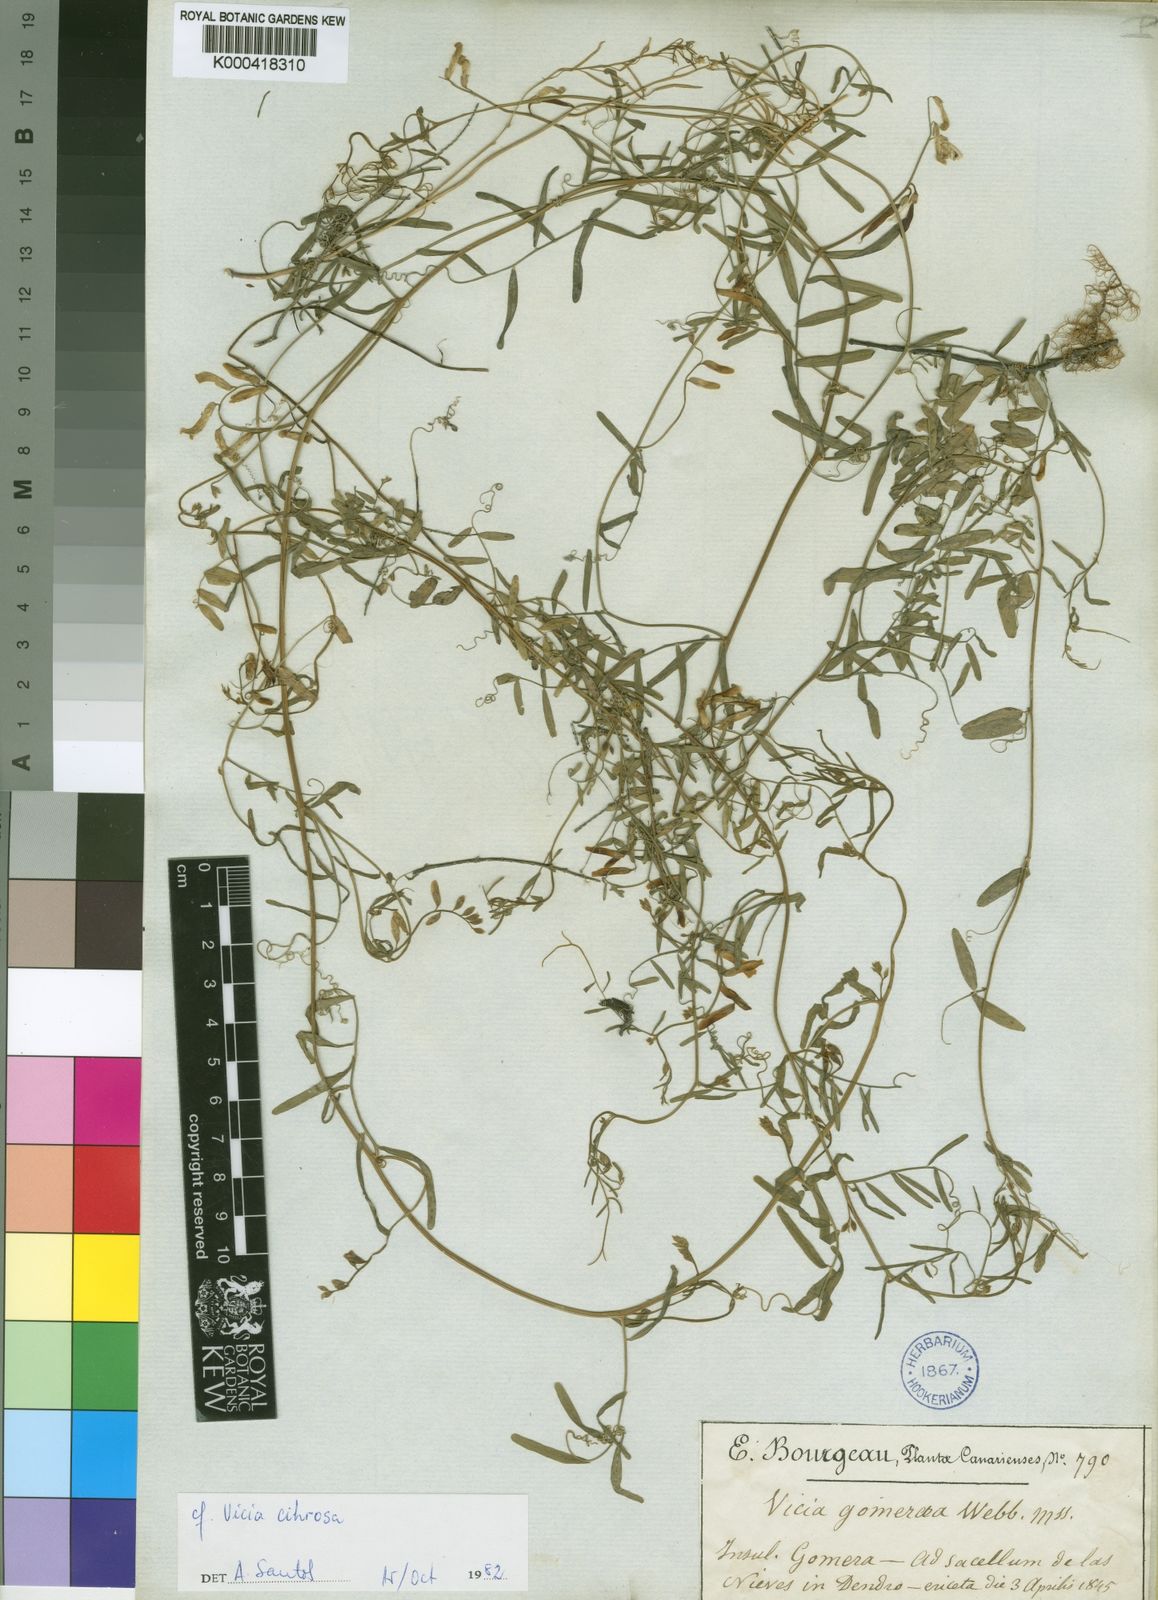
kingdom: Plantae
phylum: Tracheophyta
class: Magnoliopsida
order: Fabales
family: Fabaceae
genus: Vicia
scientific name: Vicia
